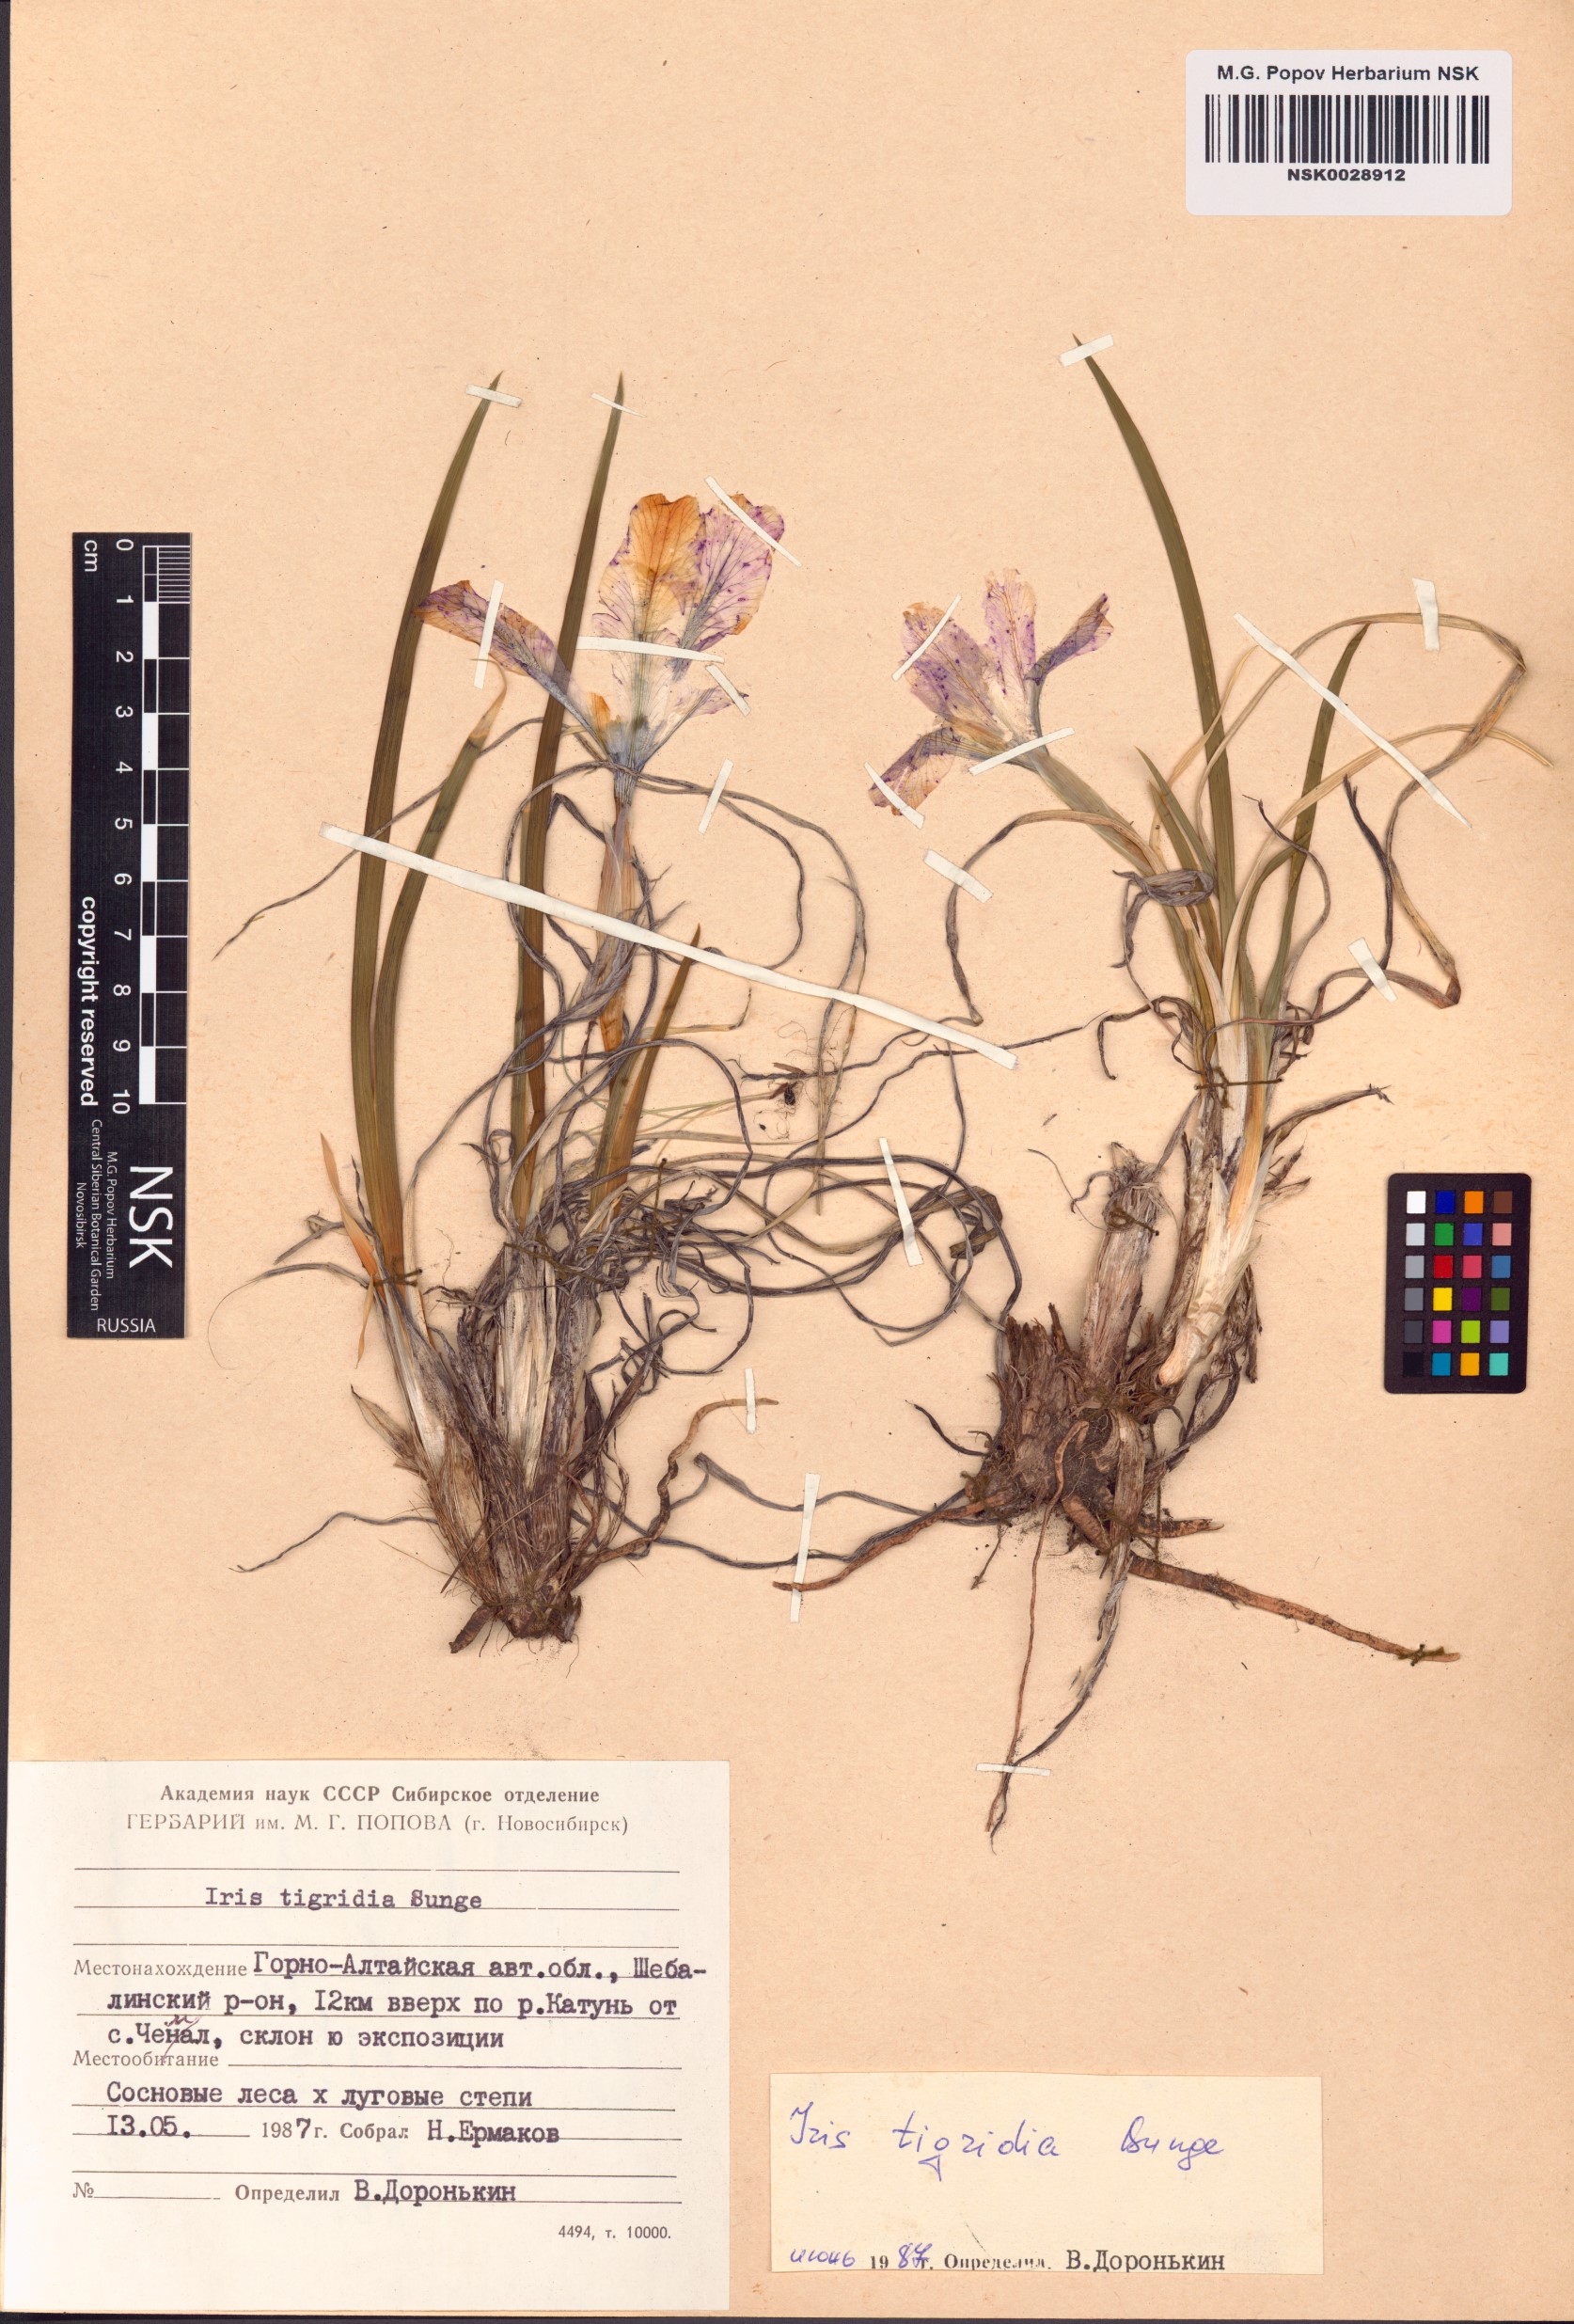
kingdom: Plantae
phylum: Tracheophyta
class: Liliopsida
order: Asparagales
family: Iridaceae
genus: Iris
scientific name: Iris tigridia
